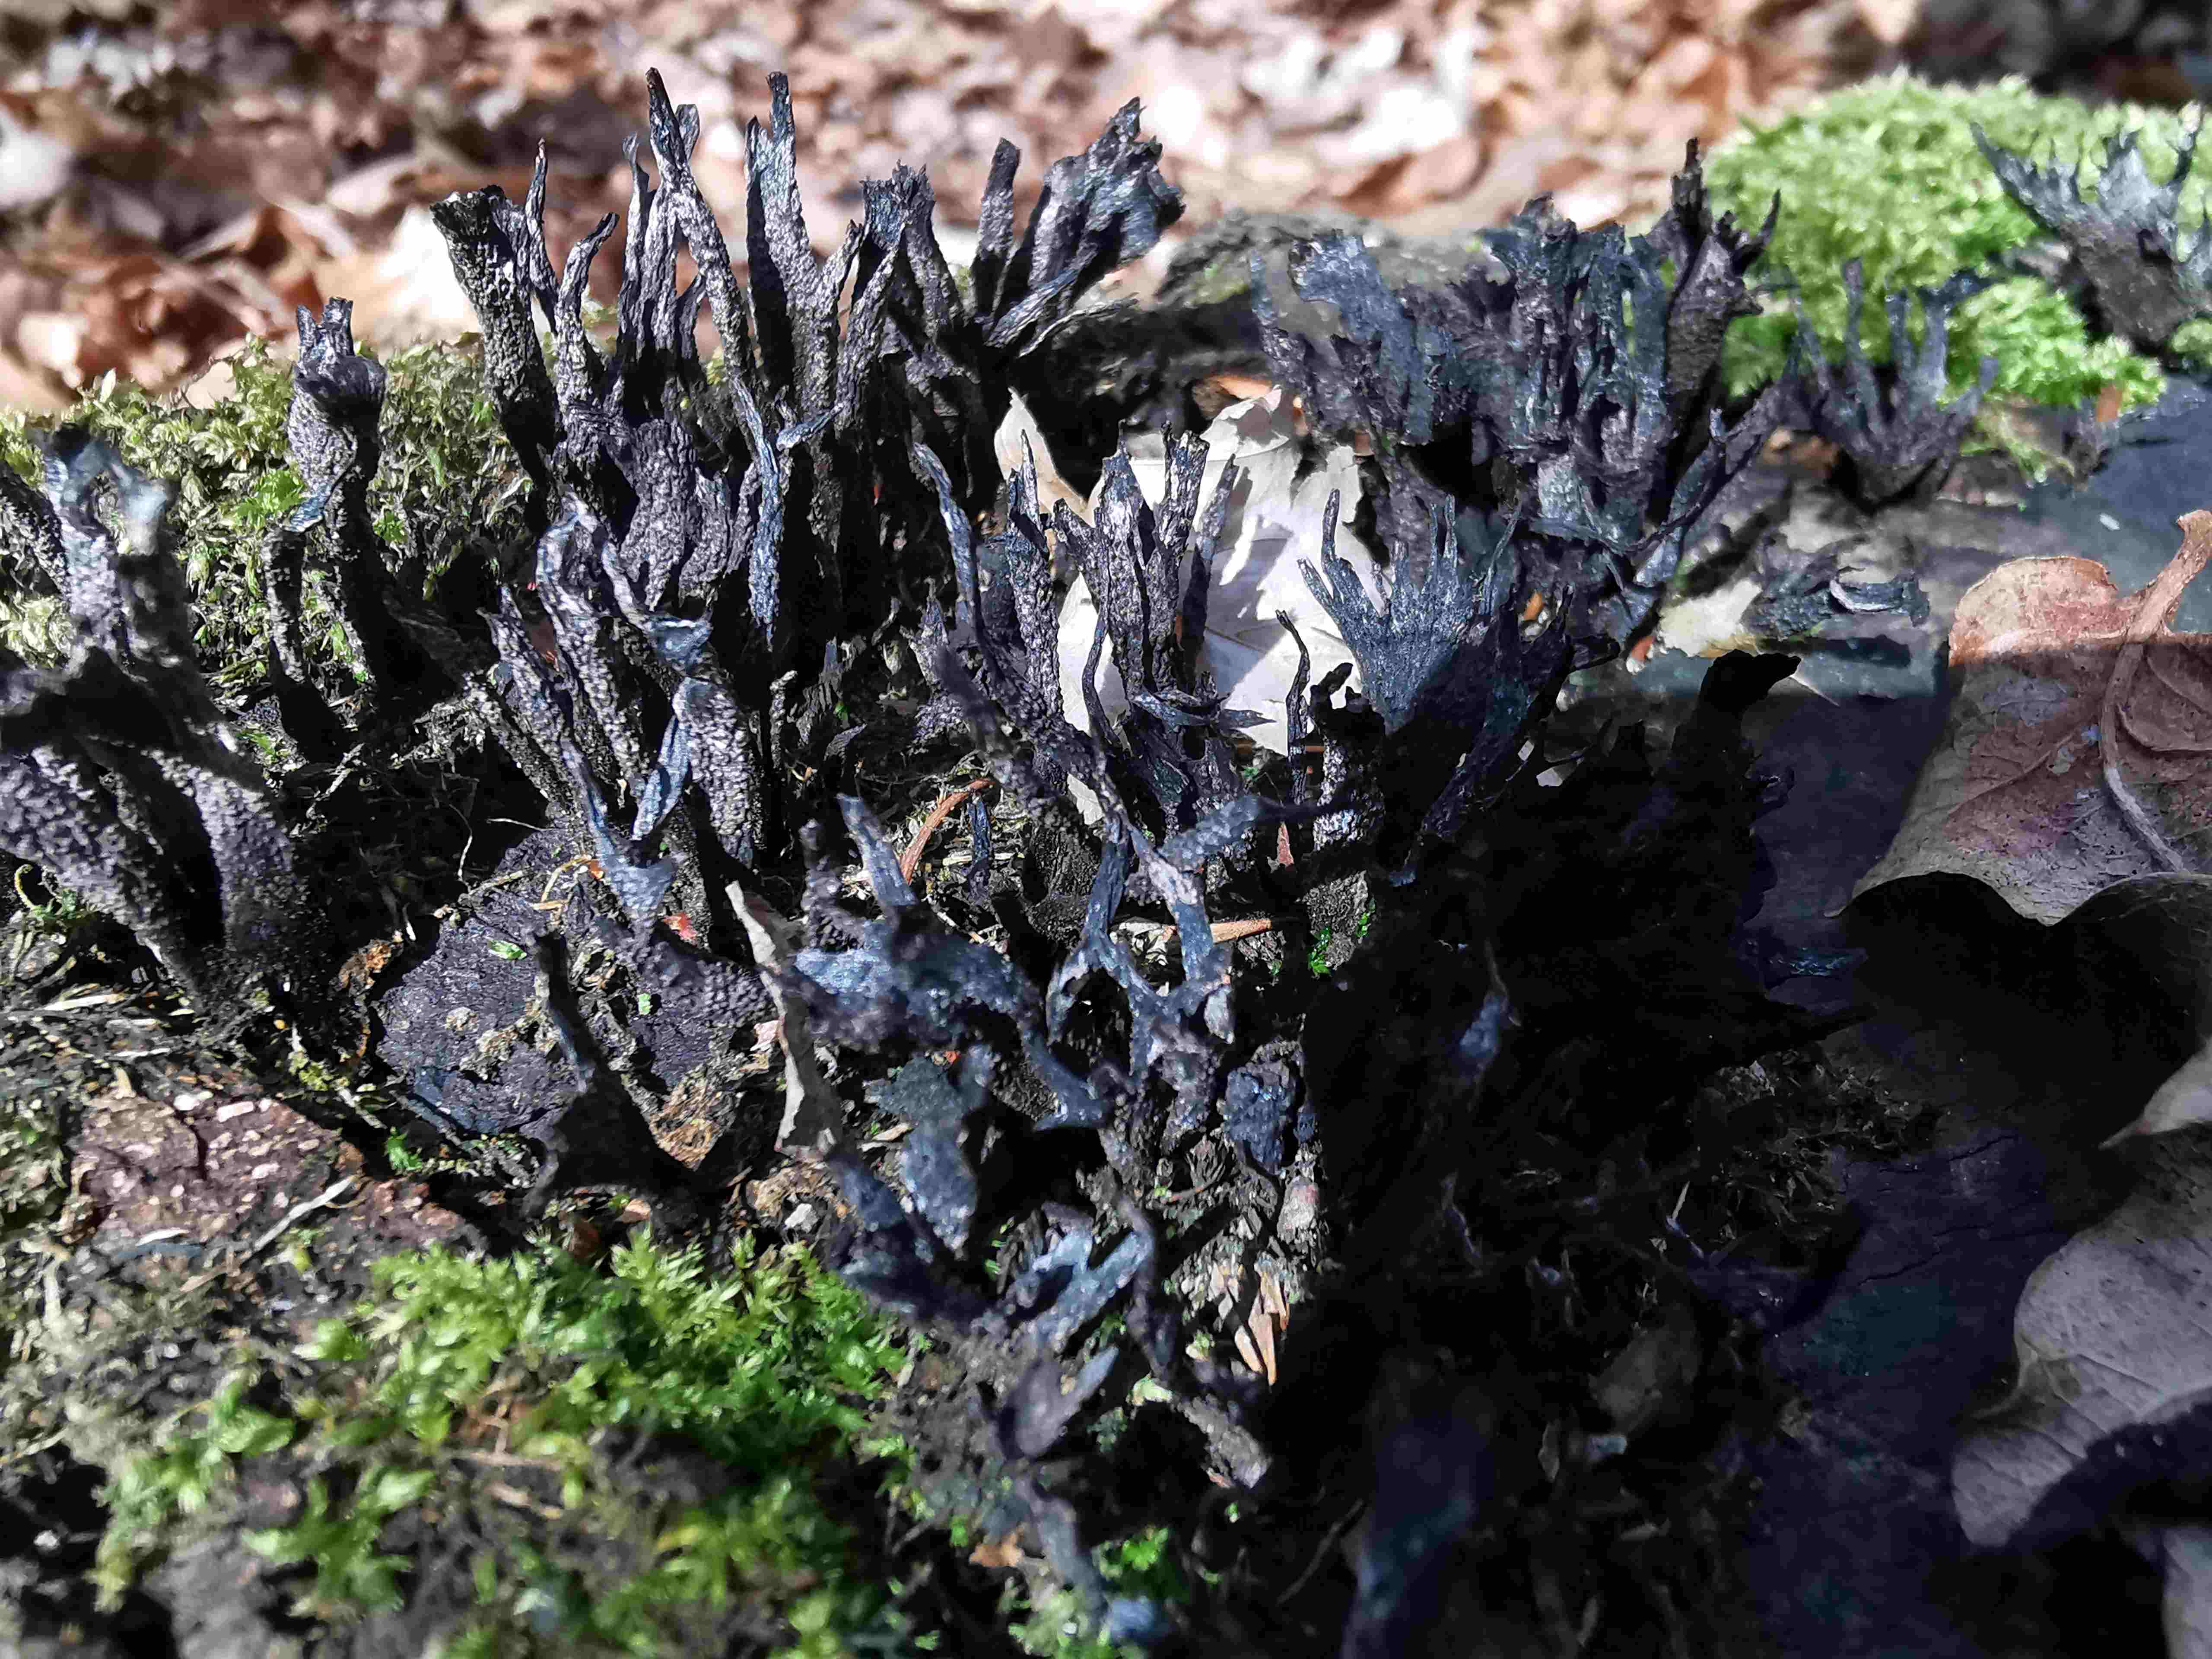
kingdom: Fungi
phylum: Ascomycota
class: Sordariomycetes
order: Xylariales
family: Xylariaceae
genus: Xylaria
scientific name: Xylaria hypoxylon
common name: grenet stødsvamp
